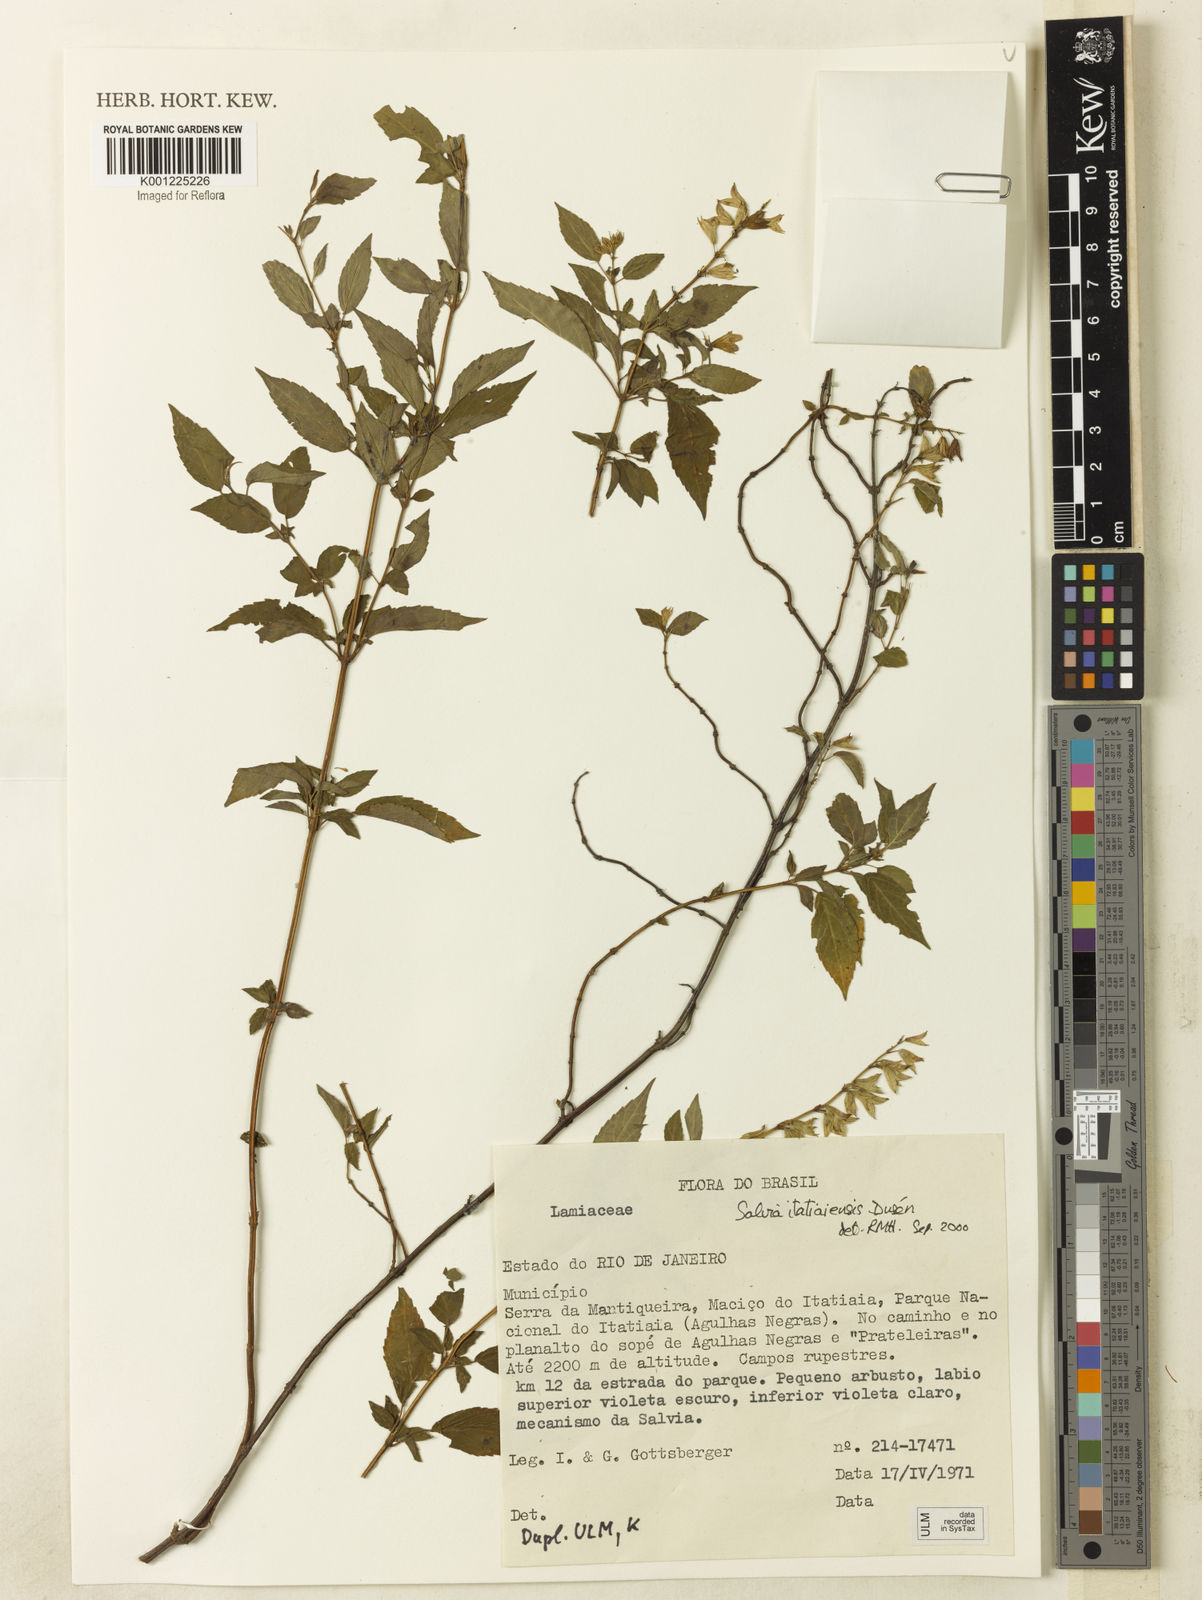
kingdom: Plantae
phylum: Tracheophyta
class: Magnoliopsida
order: Lamiales
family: Lamiaceae
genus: Salvia
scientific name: Salvia
